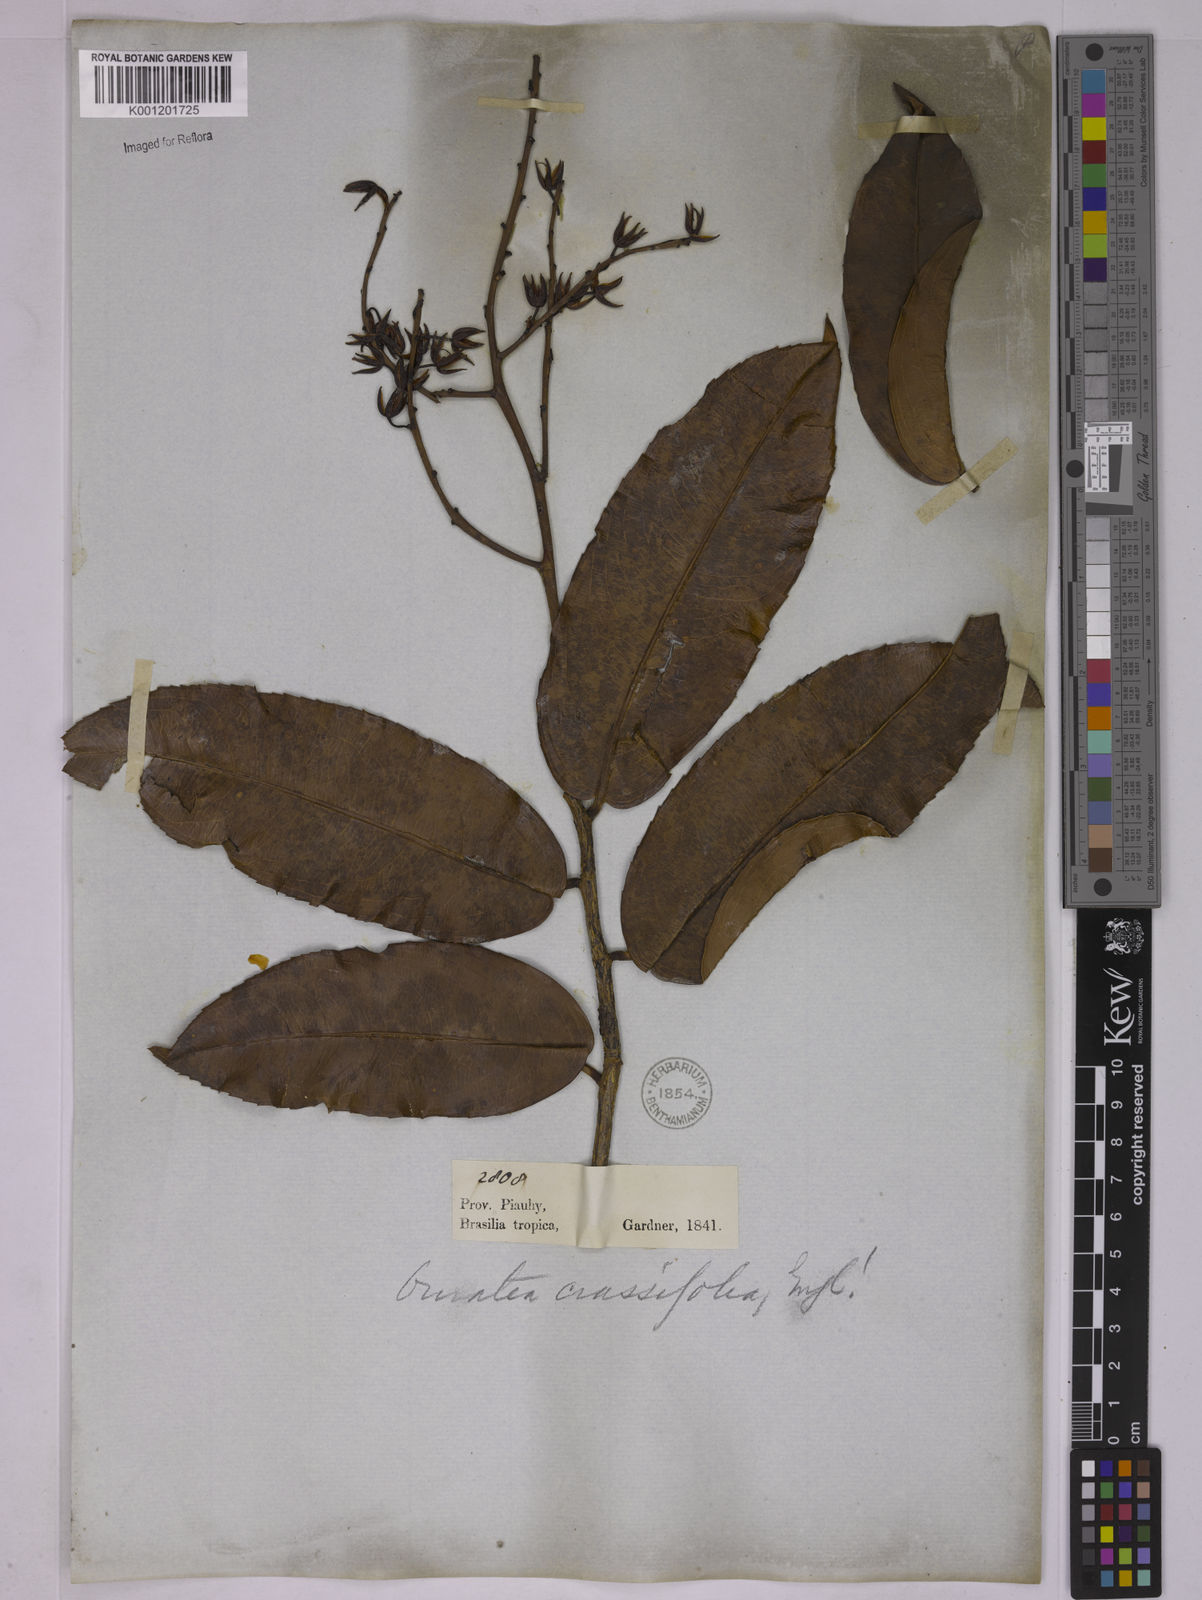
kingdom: Plantae
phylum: Tracheophyta
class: Magnoliopsida
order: Malpighiales
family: Ochnaceae
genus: Ouratea
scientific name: Ouratea crassifolia
